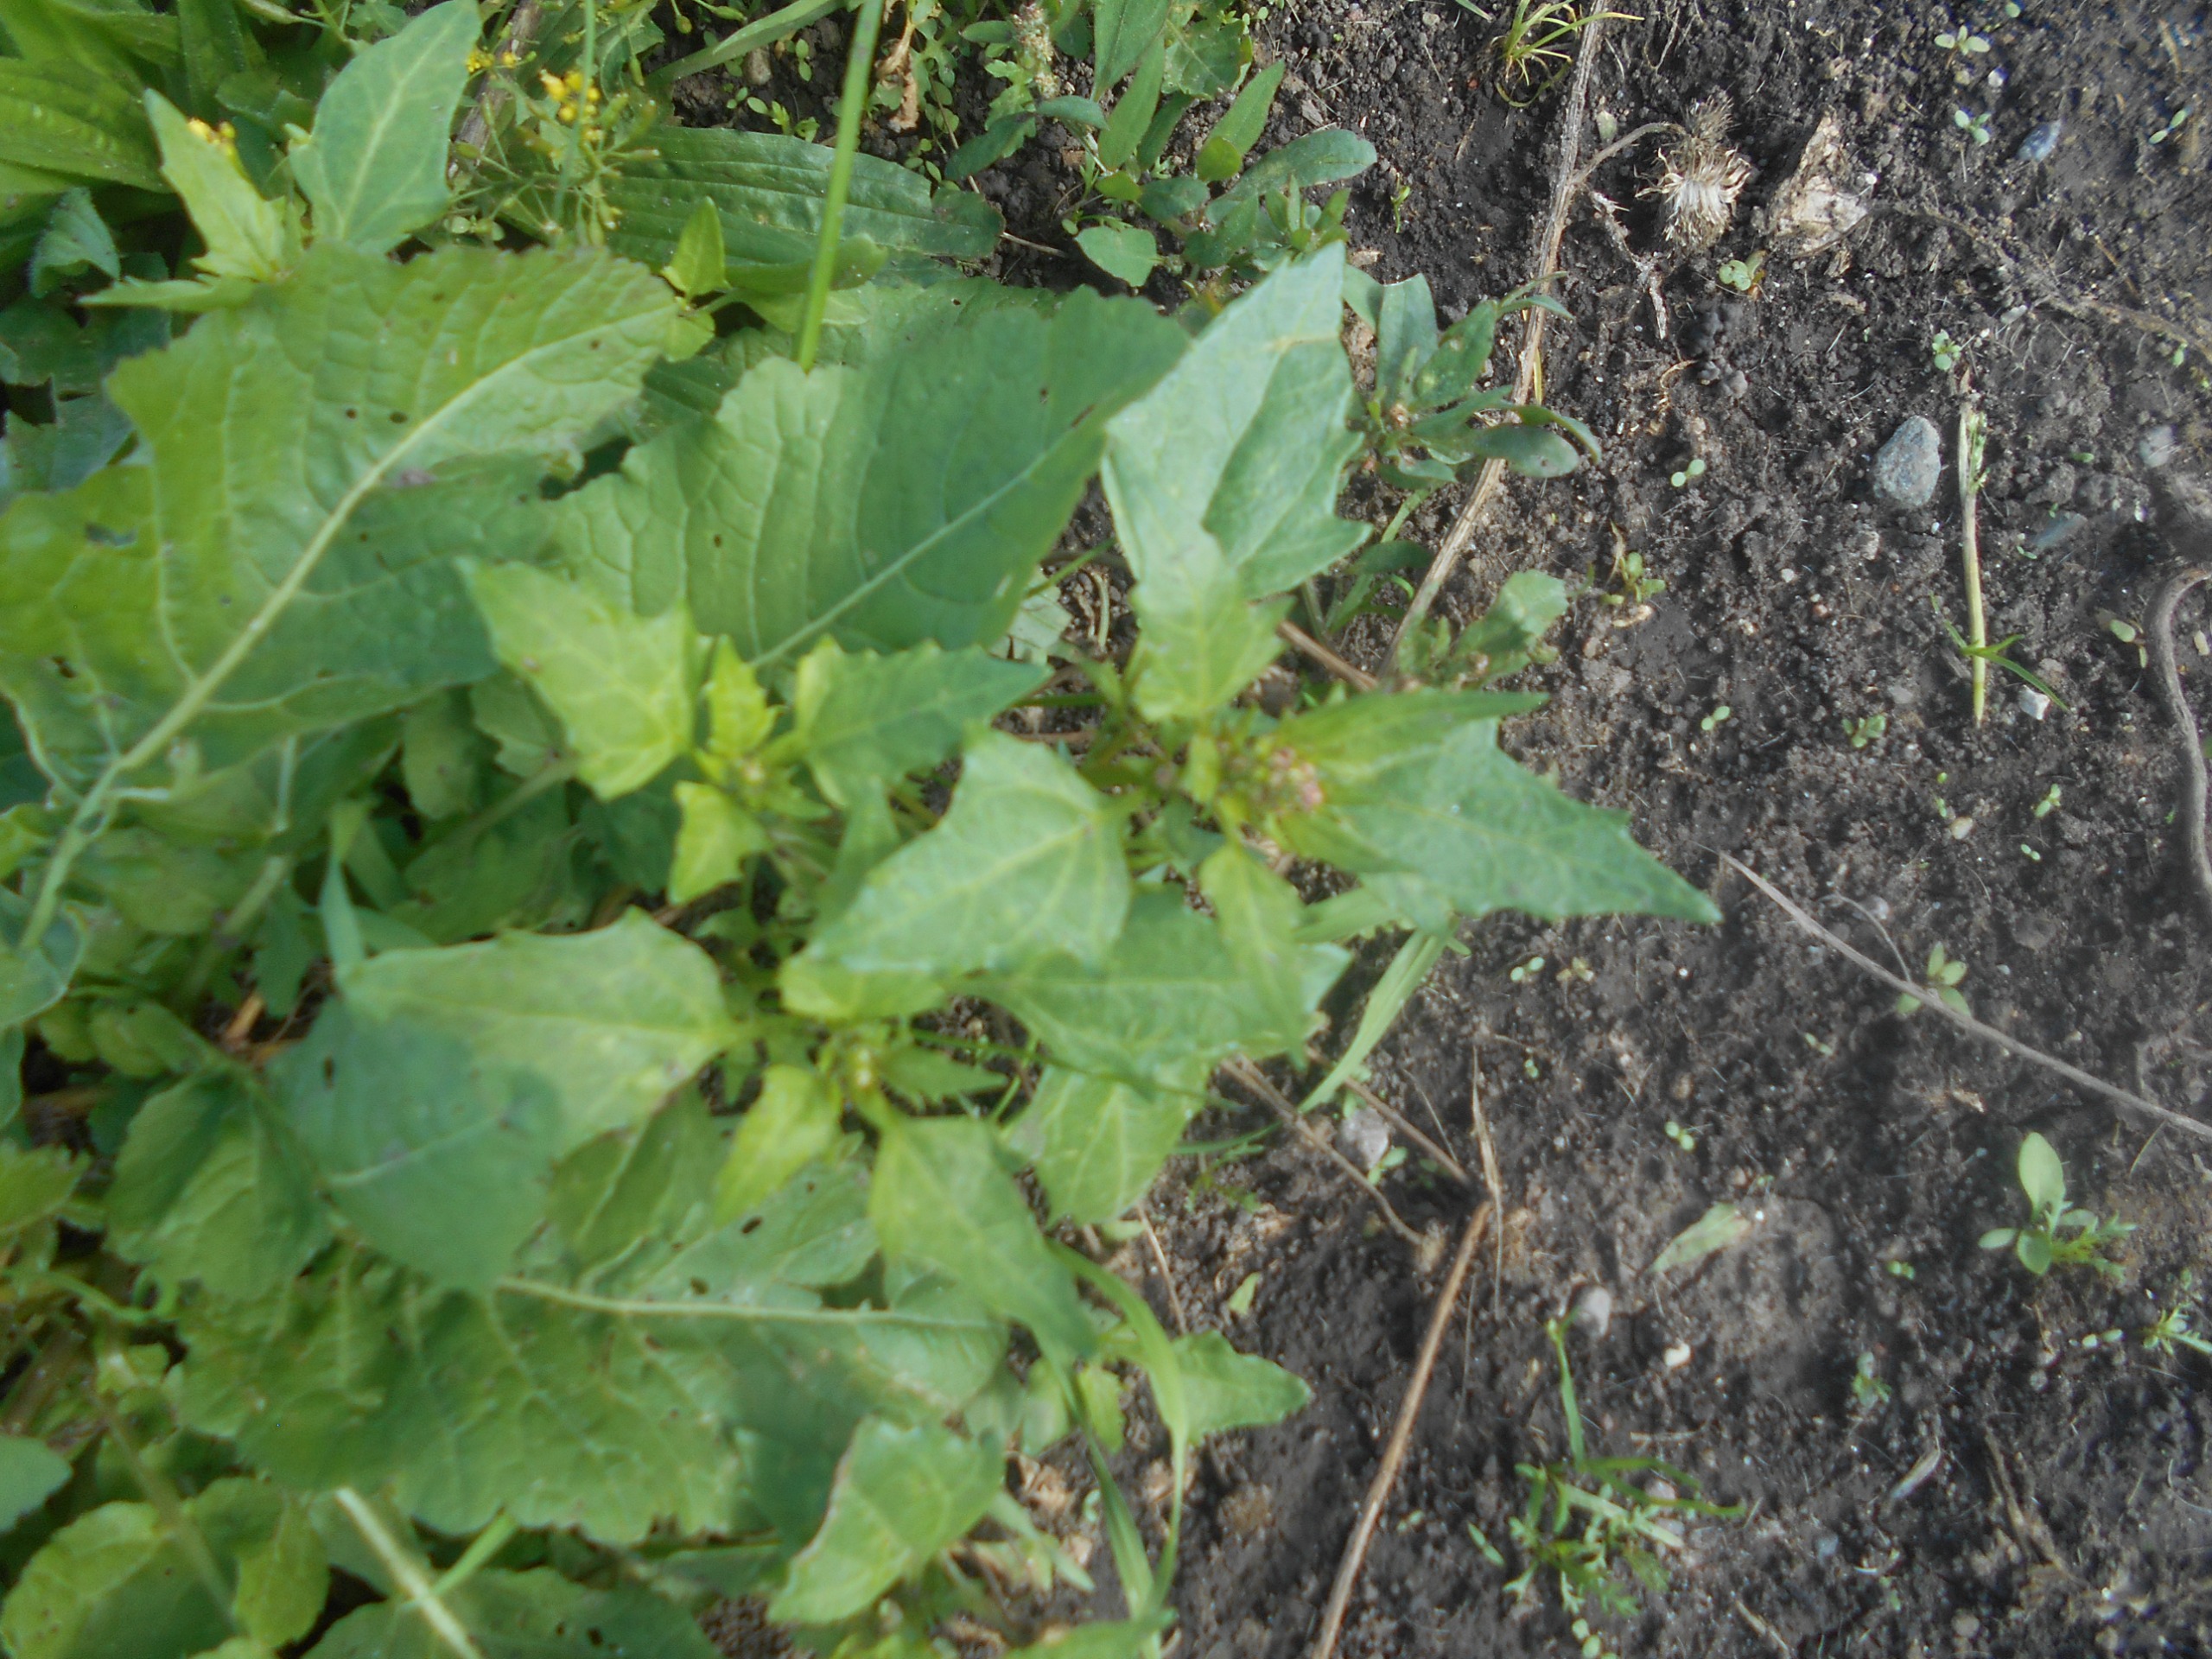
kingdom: Plantae
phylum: Tracheophyta
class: Magnoliopsida
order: Caryophyllales
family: Amaranthaceae
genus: Oxybasis
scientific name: Oxybasis rubra
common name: Rød gåsefod
